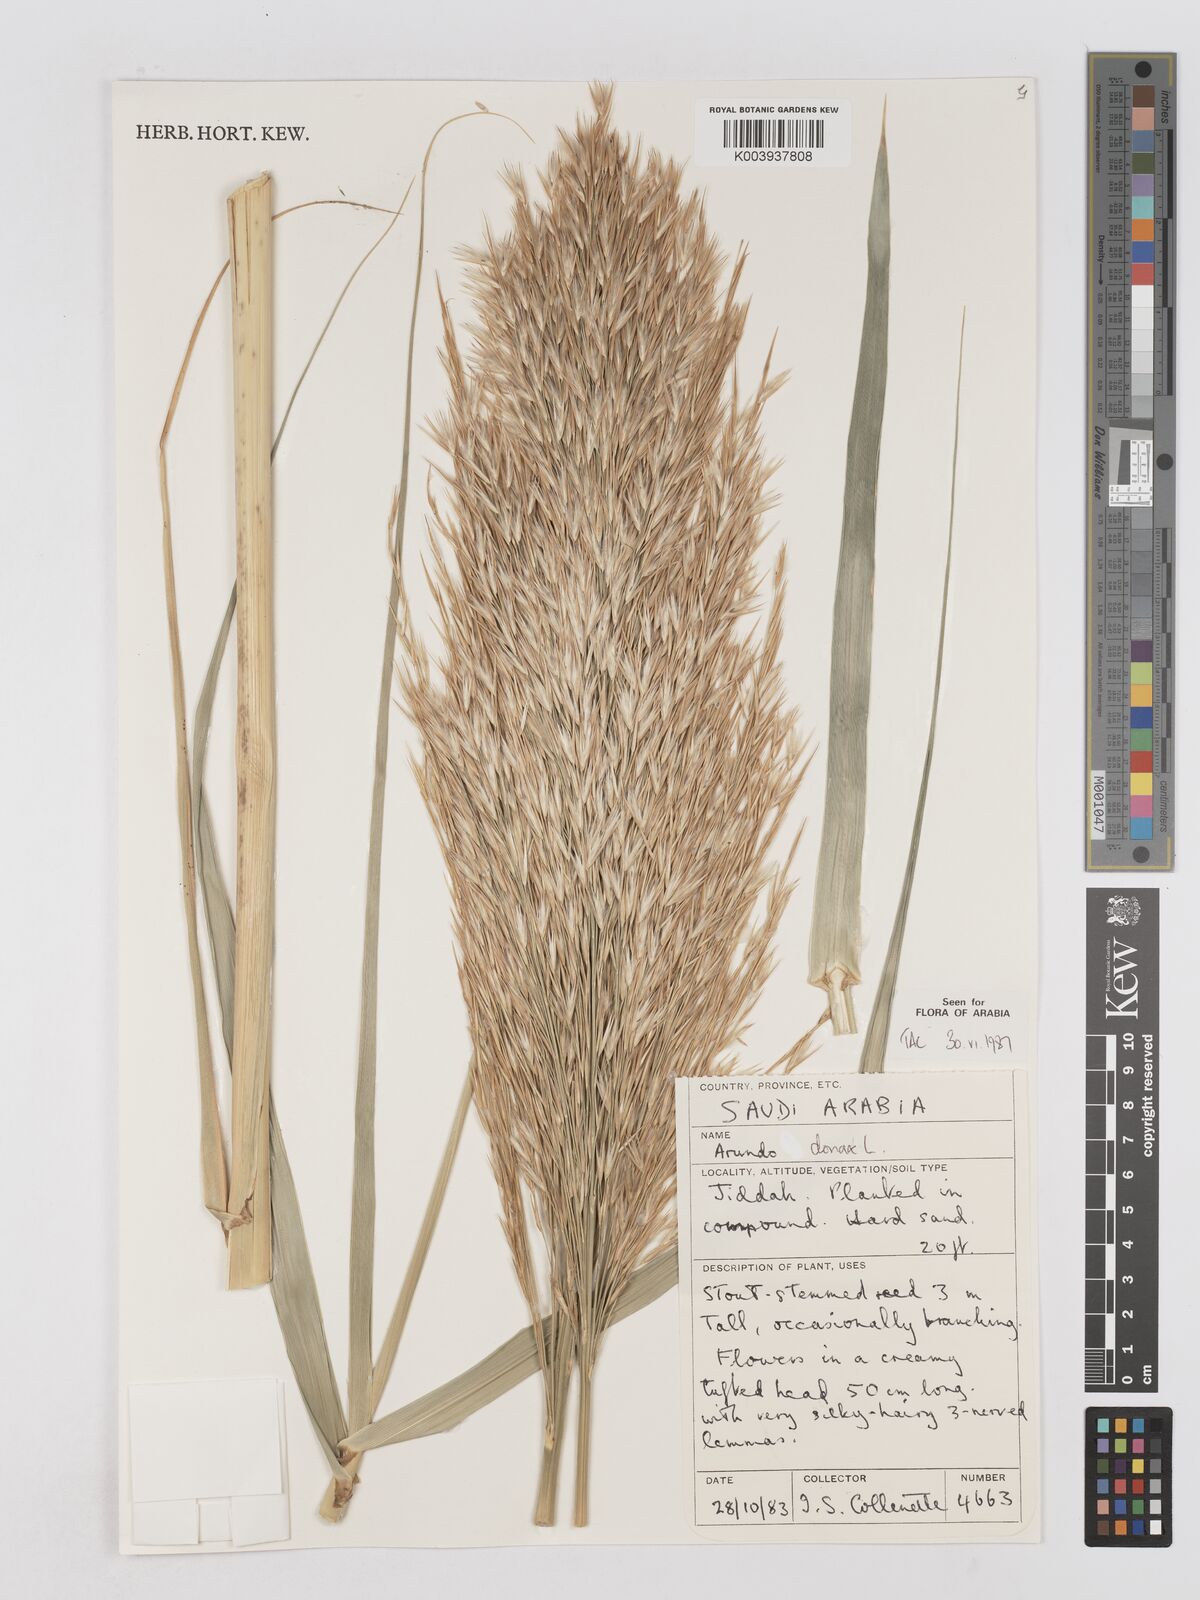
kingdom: Plantae
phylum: Tracheophyta
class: Liliopsida
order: Poales
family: Poaceae
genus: Arundo
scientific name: Arundo donax
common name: Giant reed
